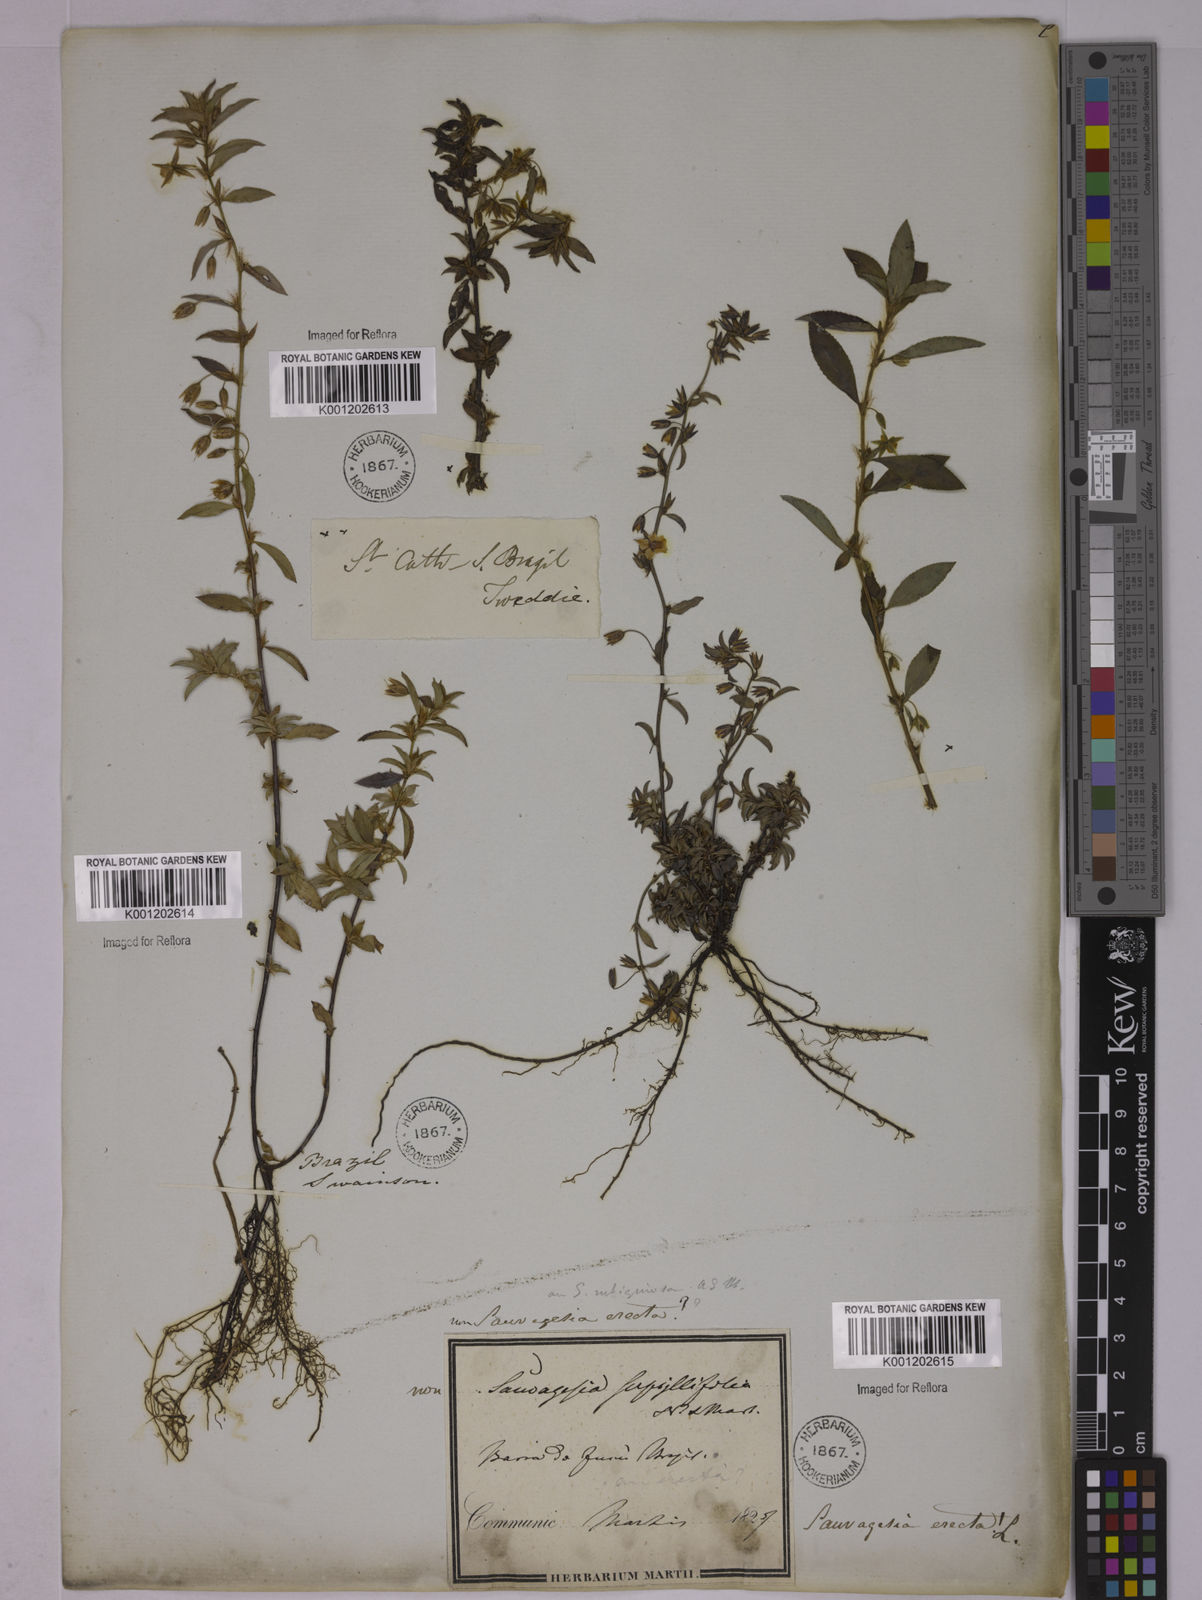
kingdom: Plantae
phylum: Tracheophyta
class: Magnoliopsida
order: Malpighiales
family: Ochnaceae
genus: Sauvagesia
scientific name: Sauvagesia erecta
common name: Creole tea
